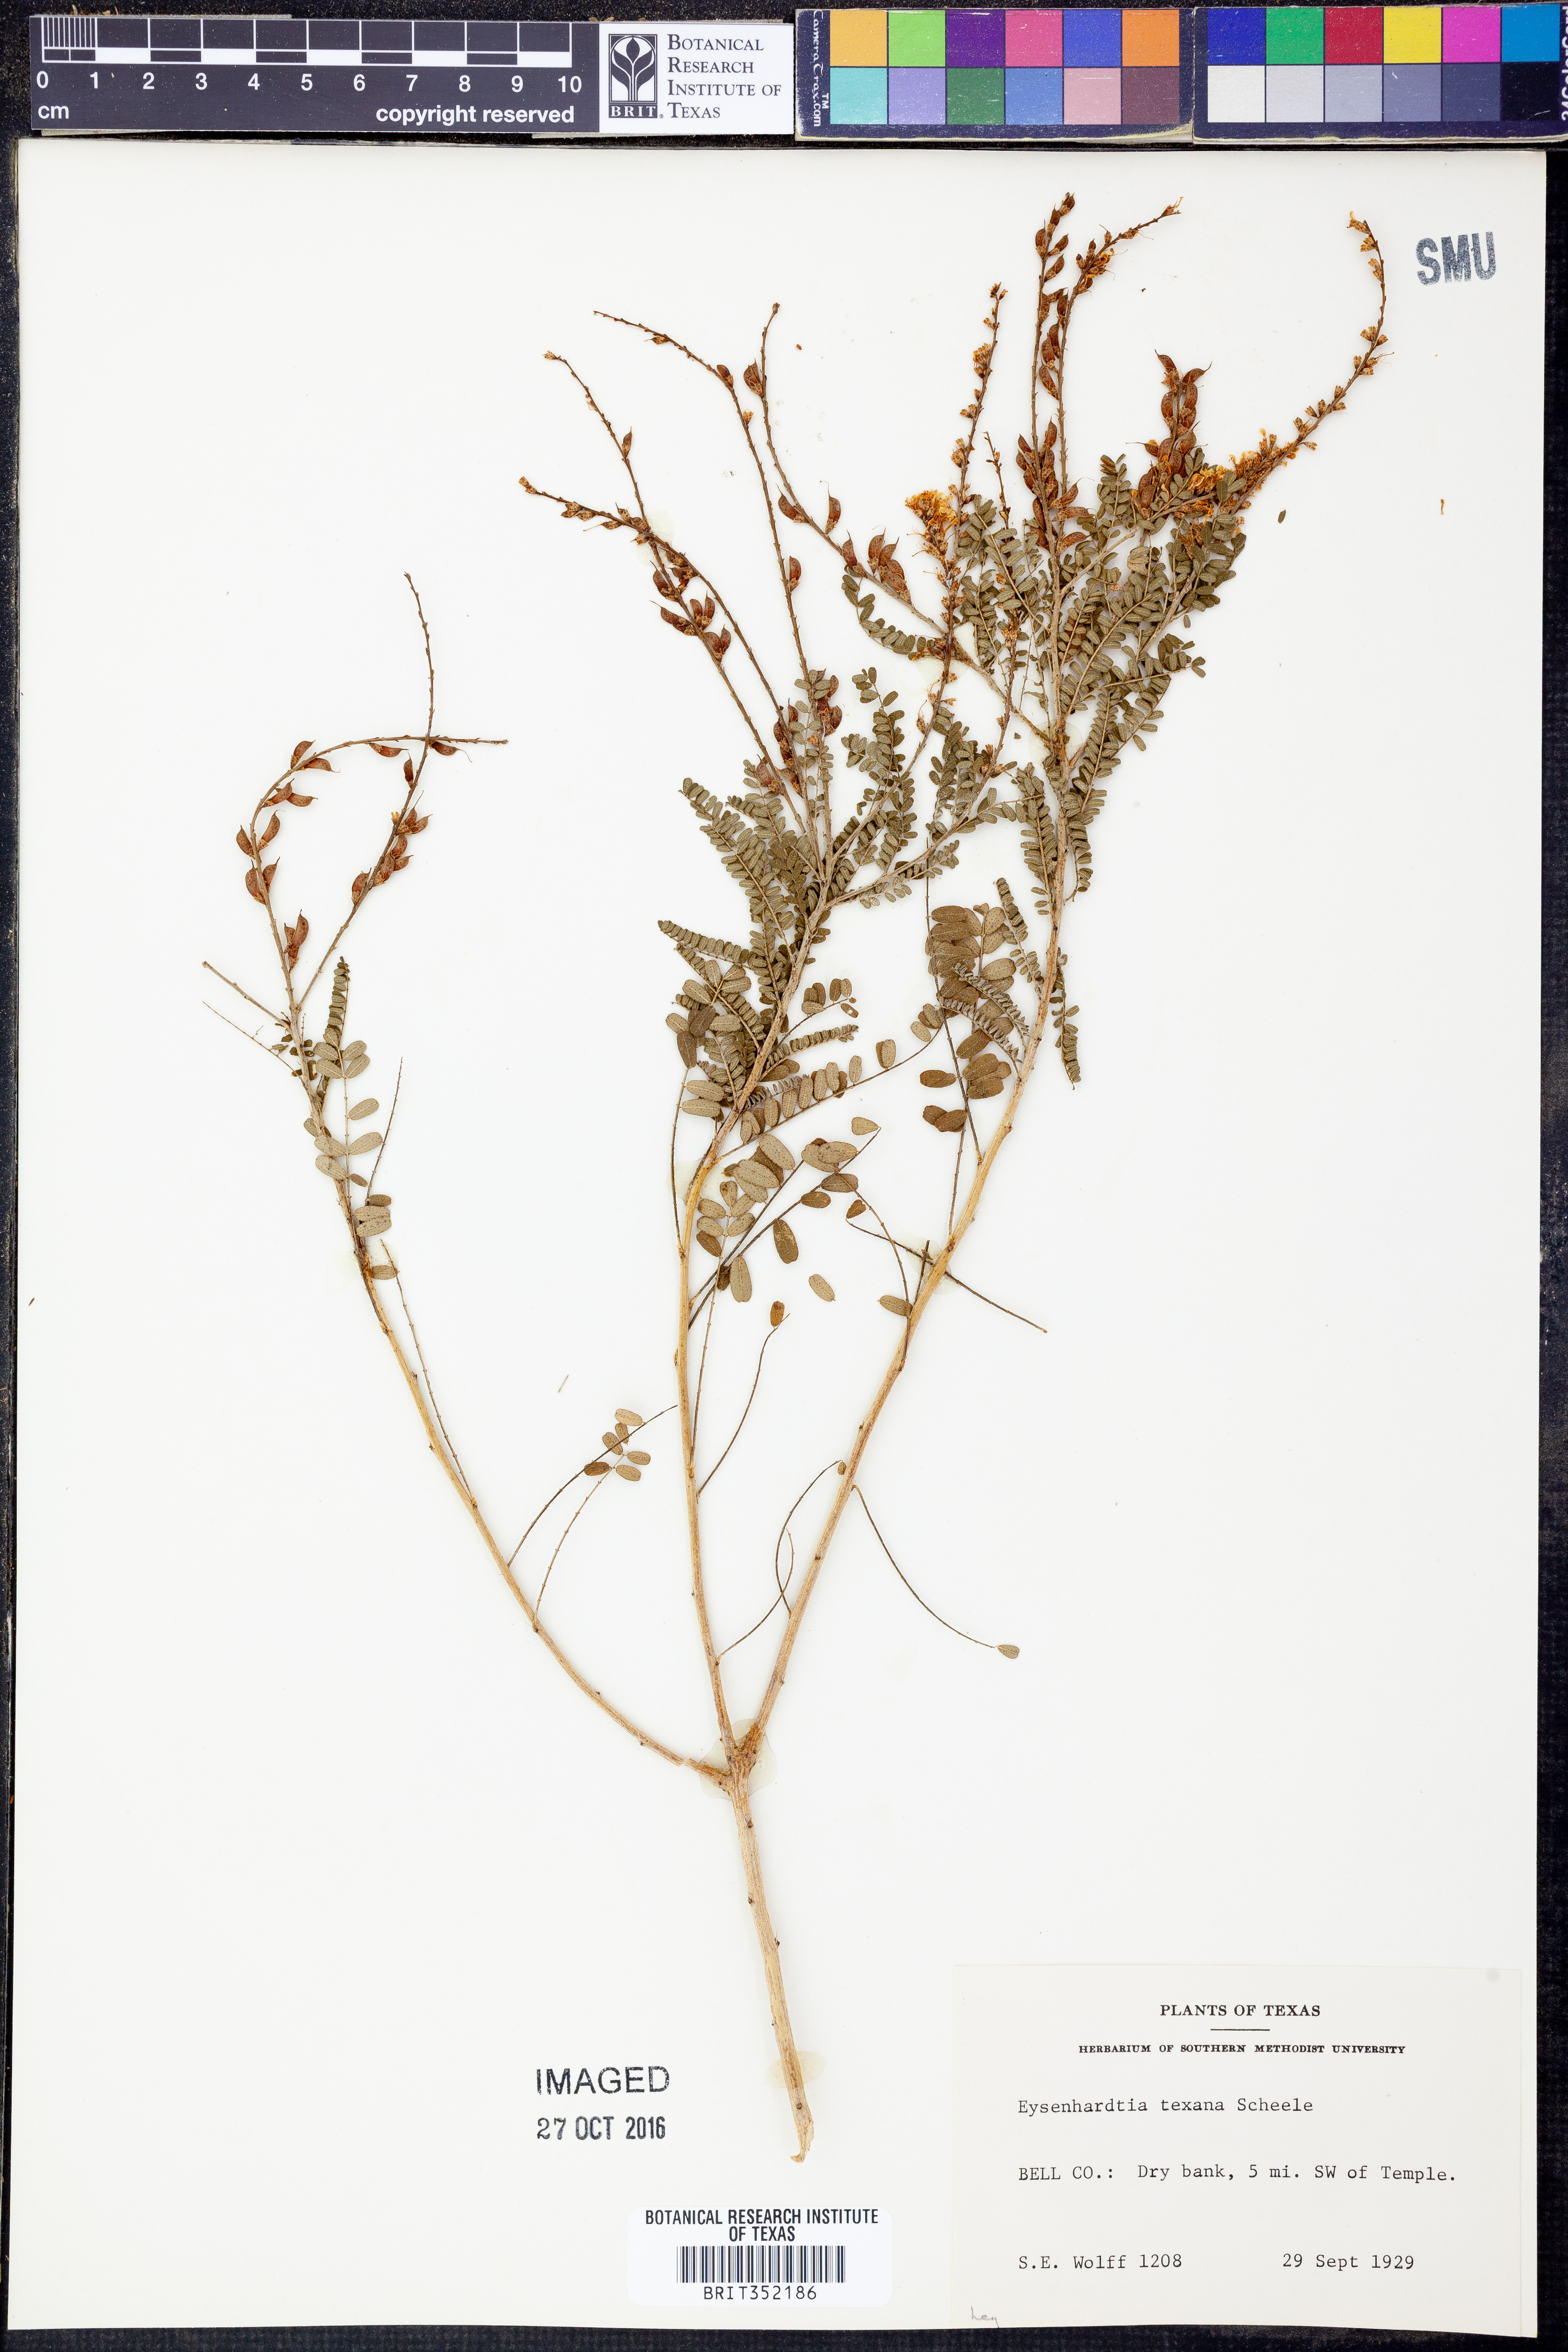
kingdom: Plantae
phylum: Tracheophyta
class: Magnoliopsida
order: Fabales
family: Fabaceae
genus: Eysenhardtia
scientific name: Eysenhardtia texana
